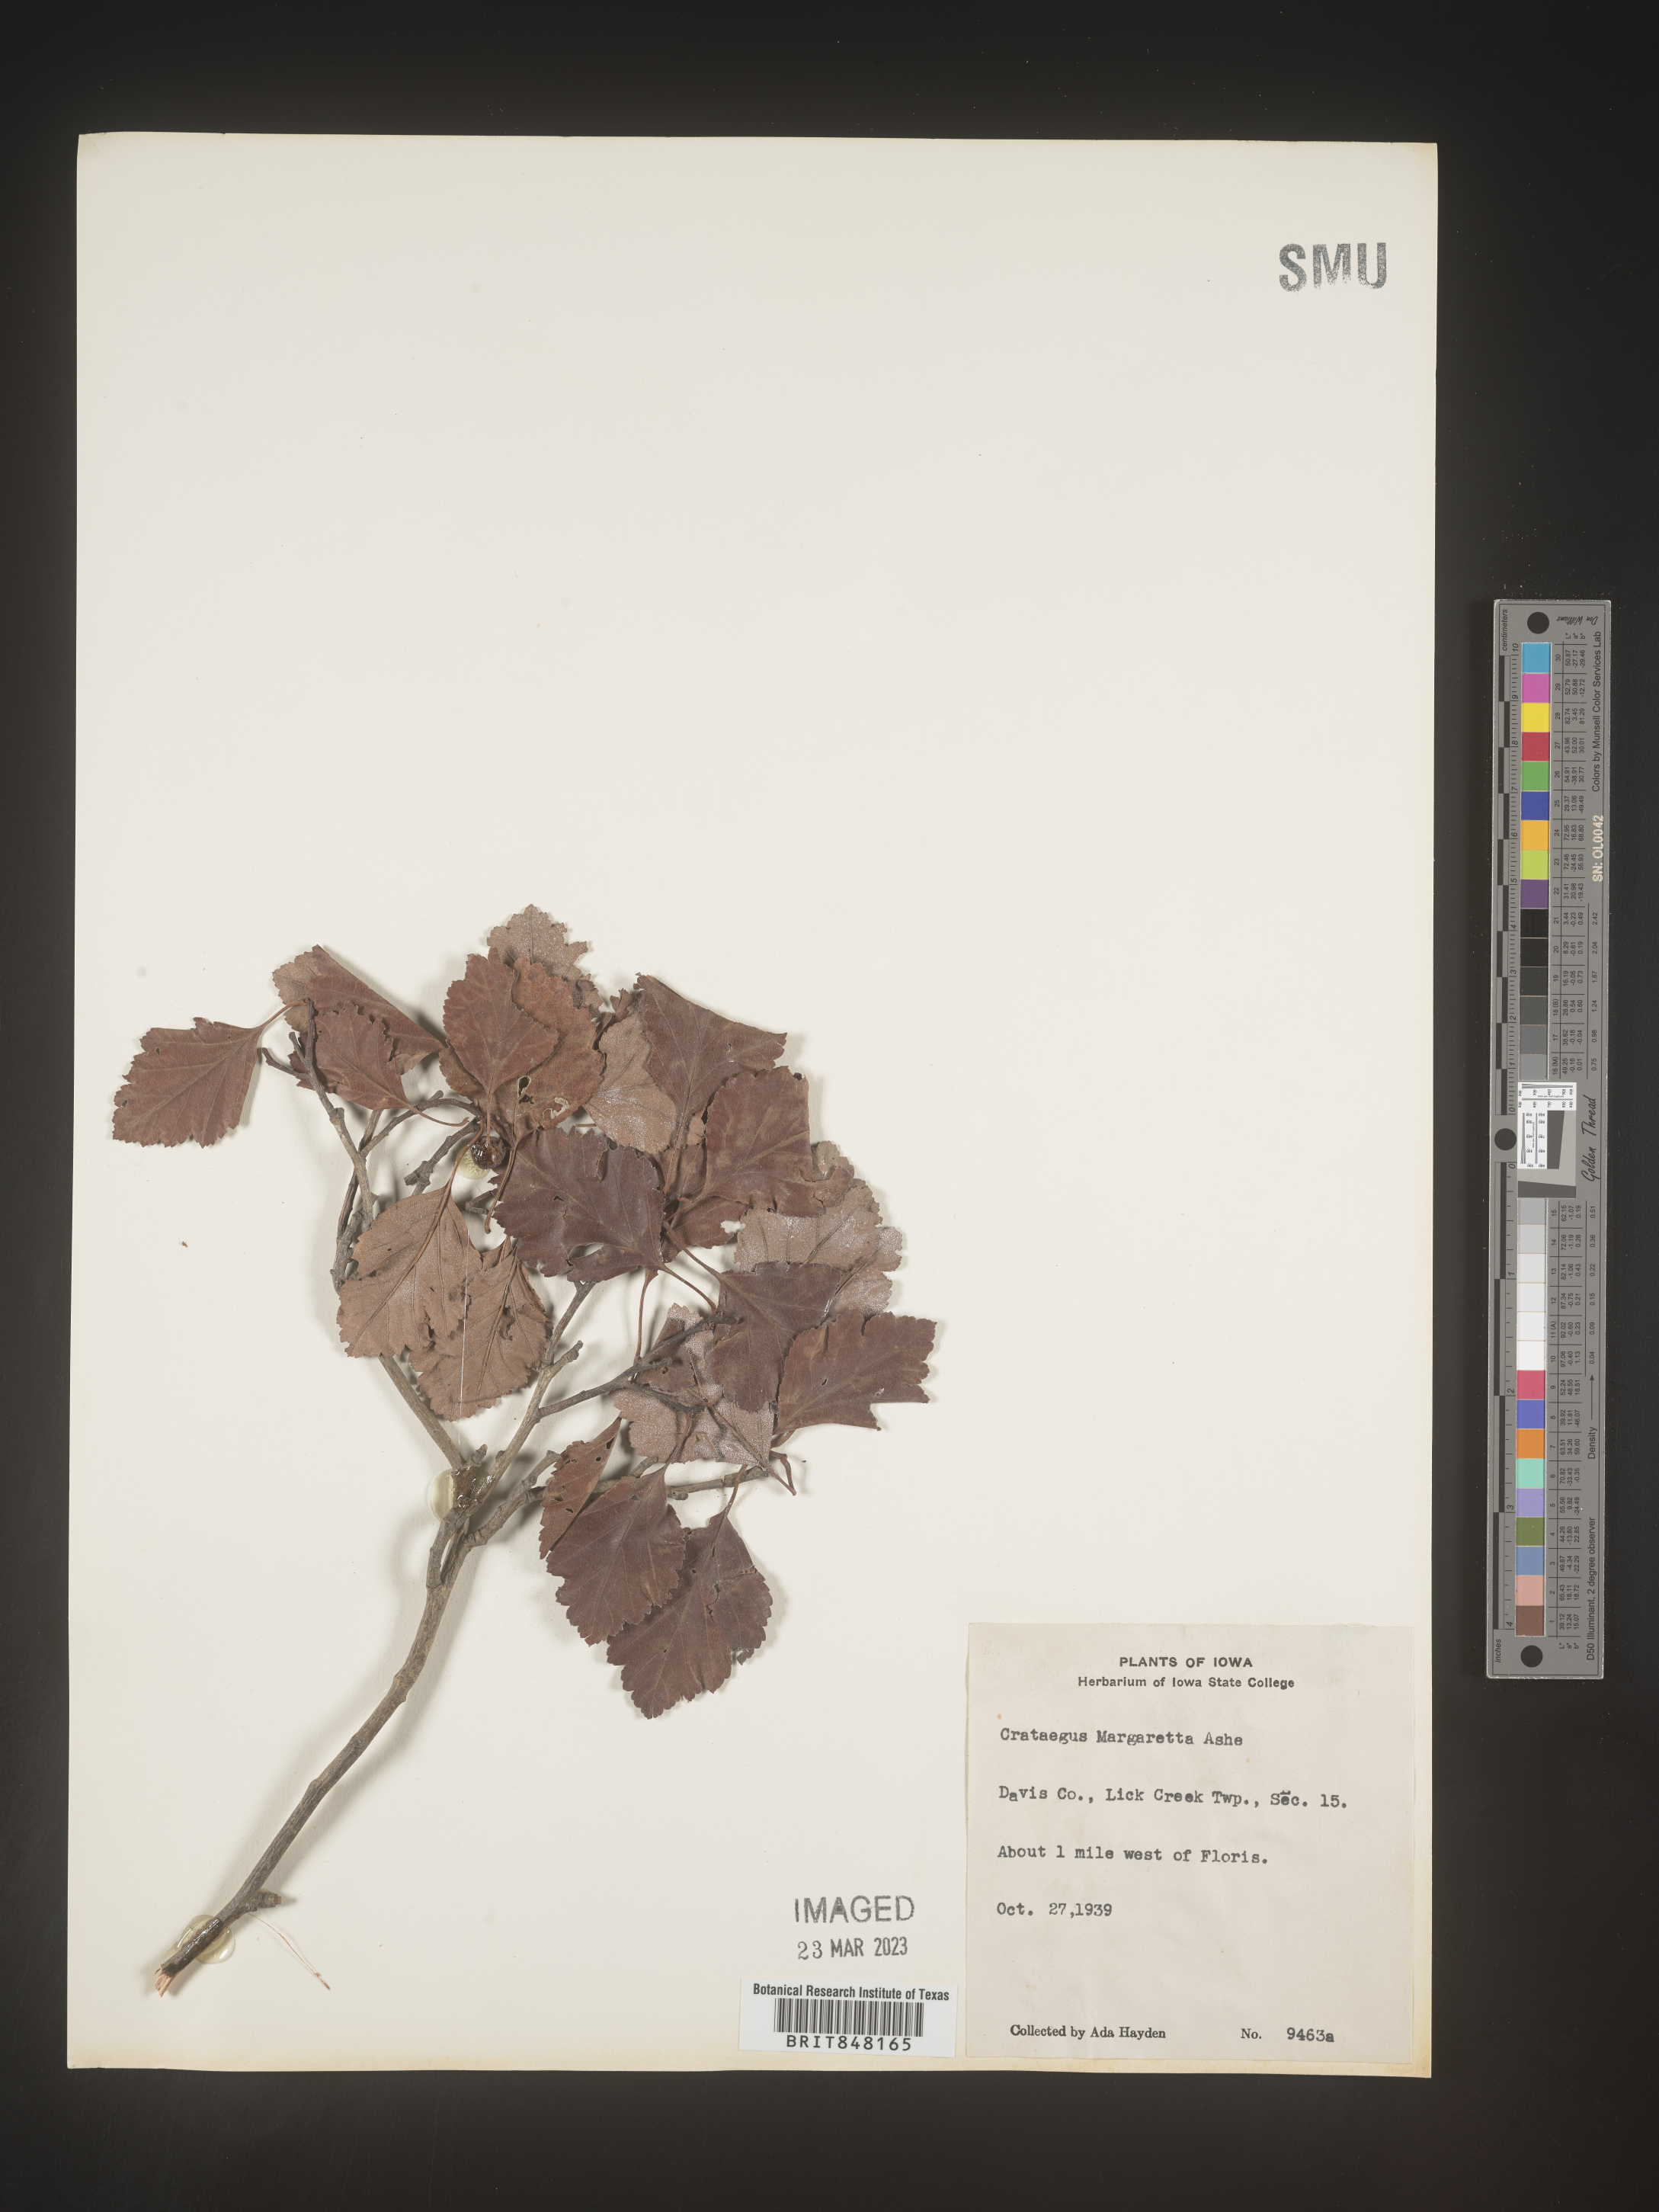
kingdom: Plantae
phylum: Tracheophyta
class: Magnoliopsida
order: Rosales
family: Rosaceae
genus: Crataegus
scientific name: Crataegus margaretta
